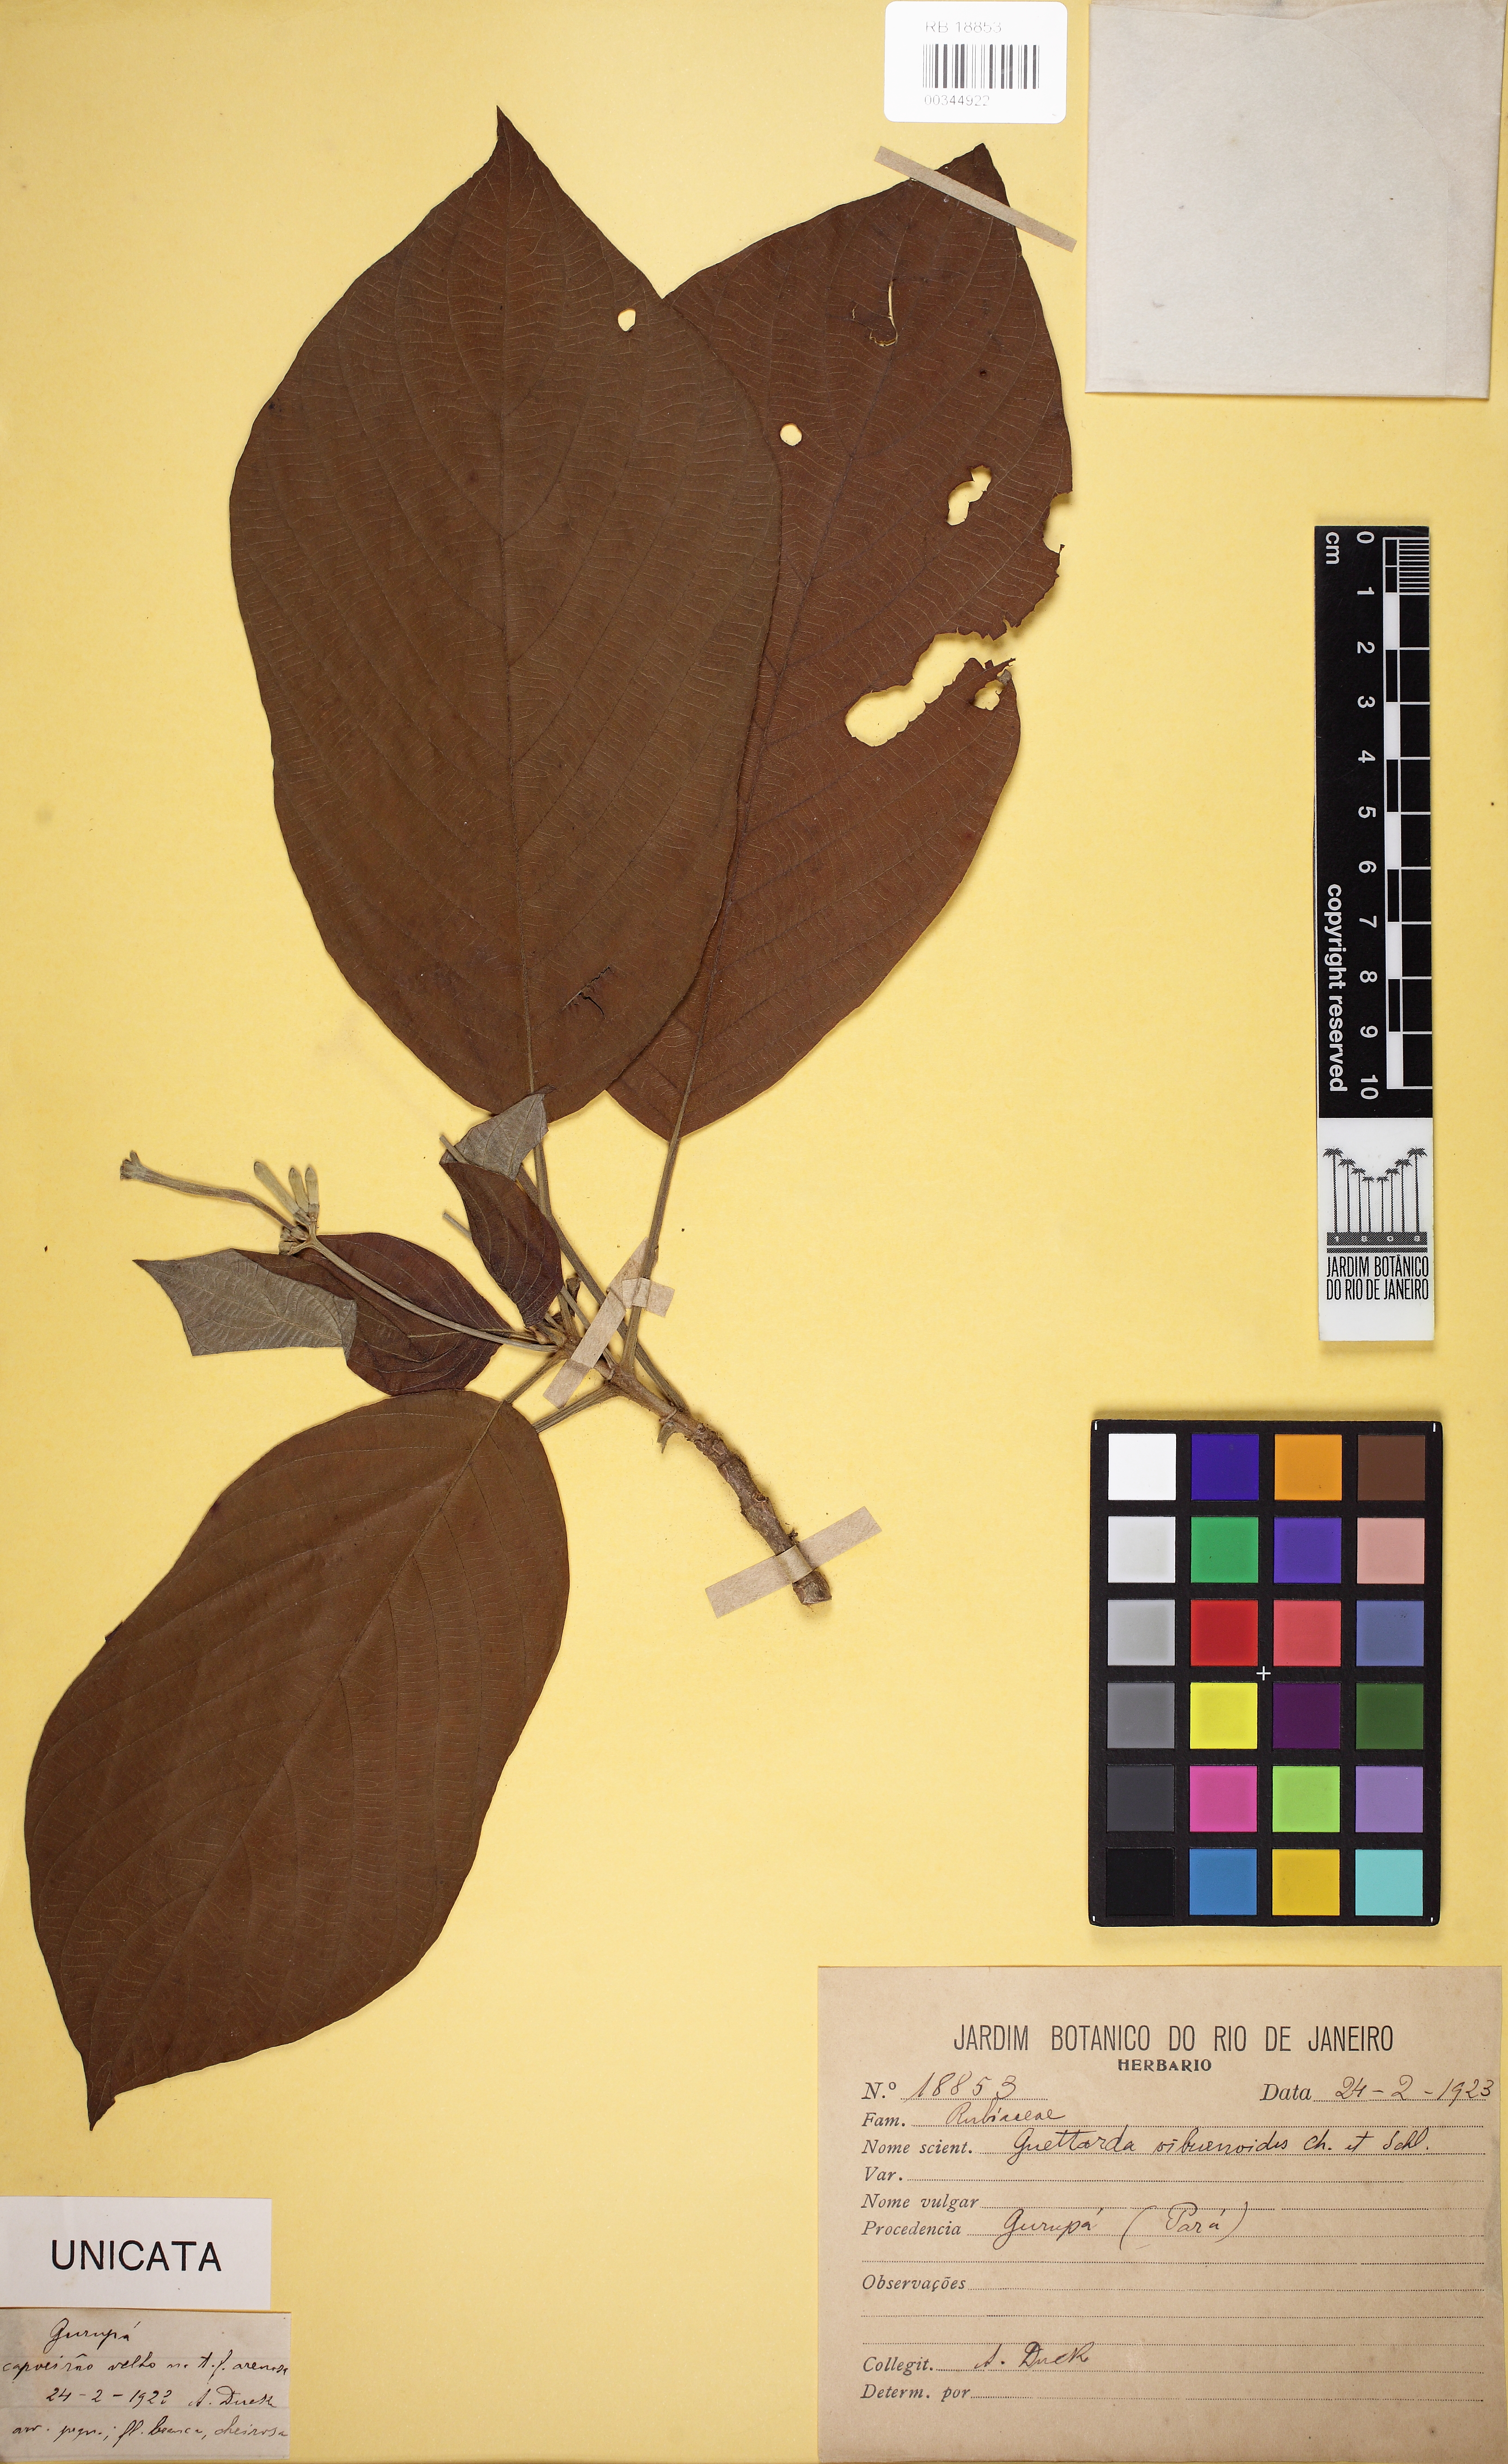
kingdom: Plantae
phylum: Tracheophyta
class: Magnoliopsida
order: Gentianales
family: Rubiaceae
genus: Guettarda
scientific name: Guettarda viburnoides
